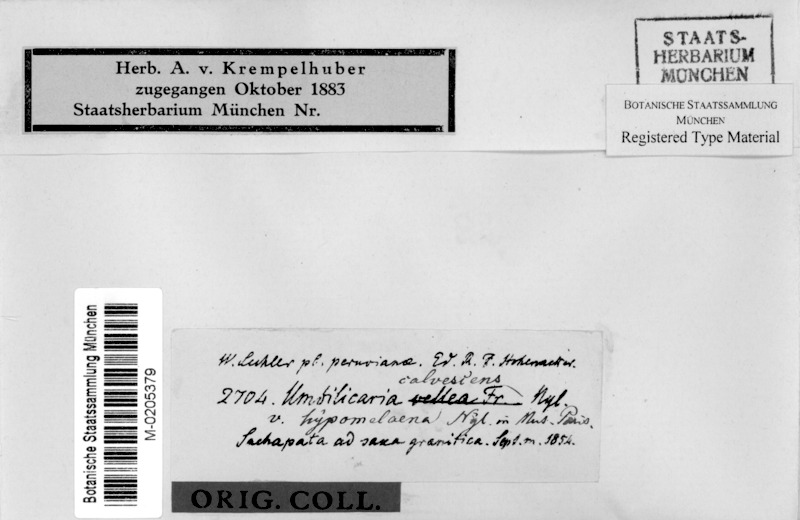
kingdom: Fungi
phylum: Ascomycota
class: Lecanoromycetes
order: Umbilicariales
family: Umbilicariaceae
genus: Umbilicaria
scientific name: Umbilicaria calvescens
